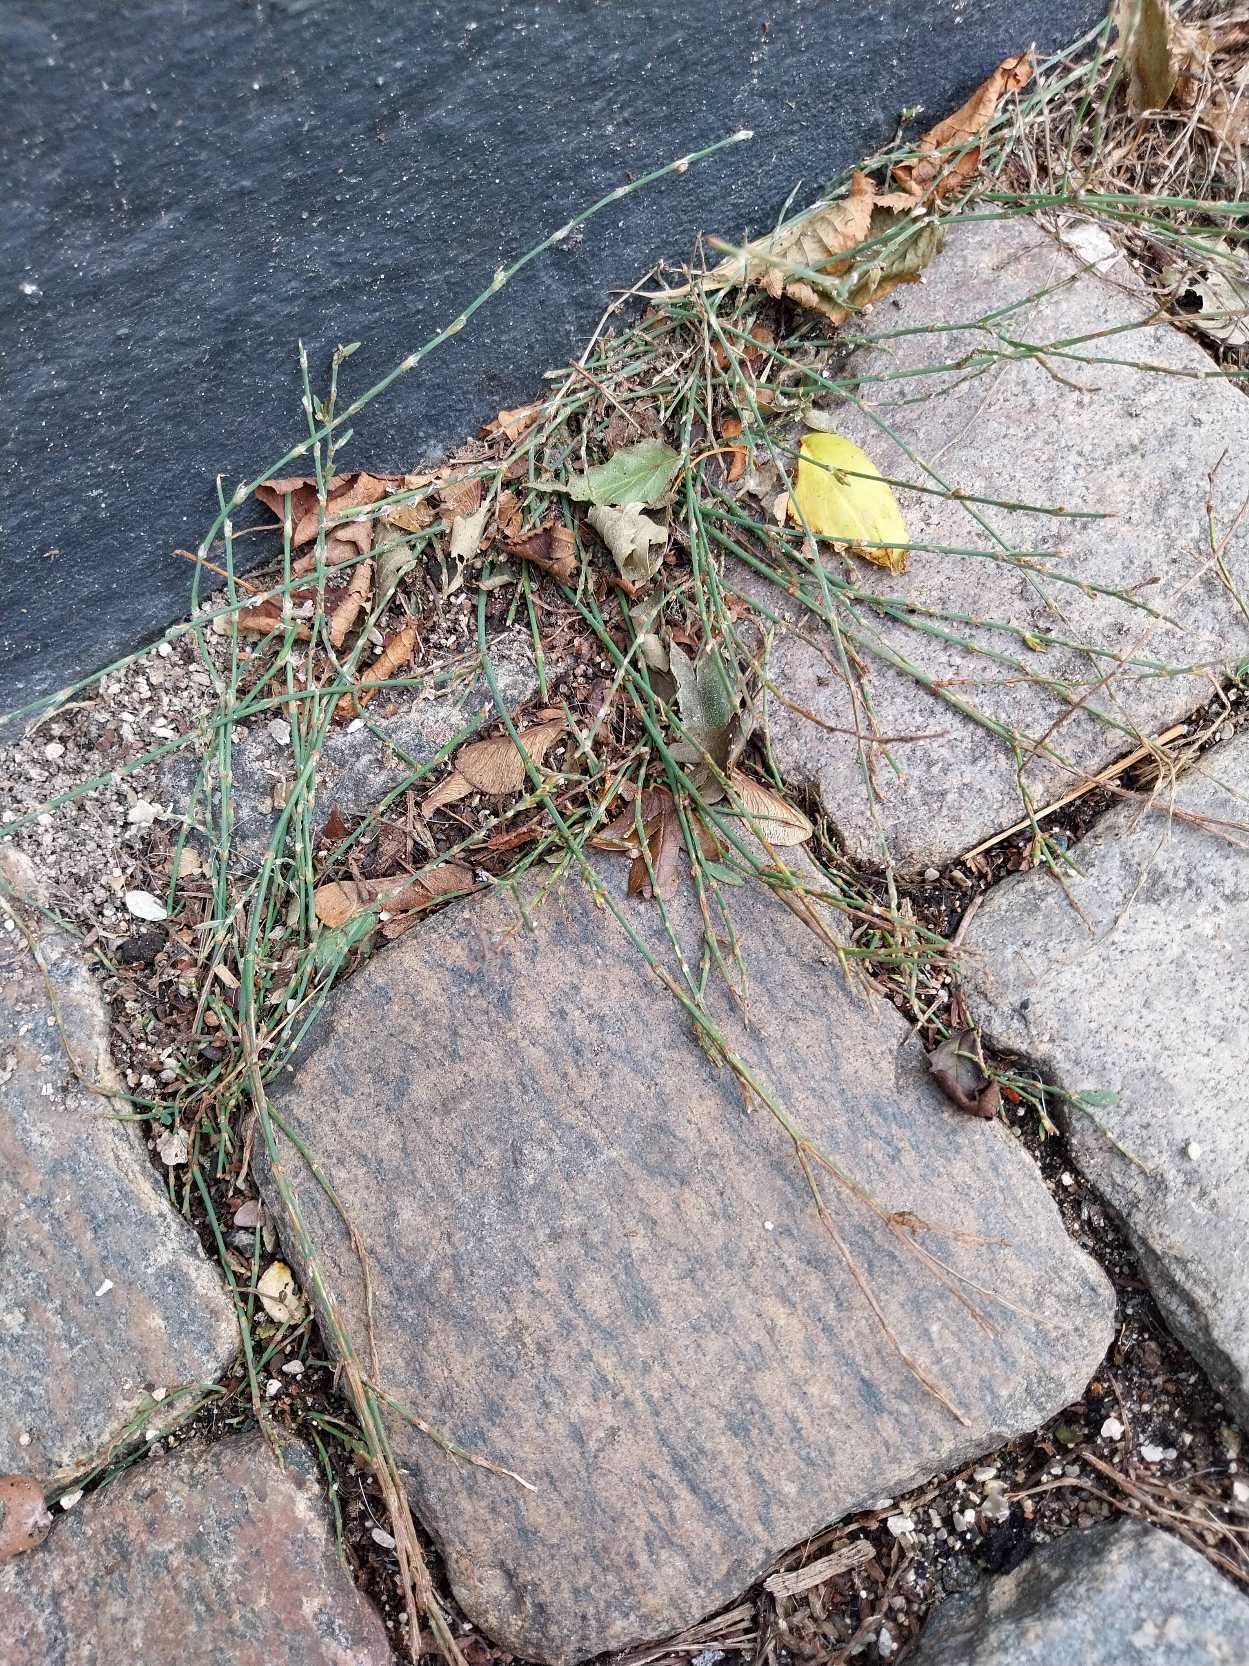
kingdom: Plantae
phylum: Tracheophyta
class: Magnoliopsida
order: Caryophyllales
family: Polygonaceae
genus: Polygonum
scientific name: Polygonum arenastrum
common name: Liggende vej-pileurt
